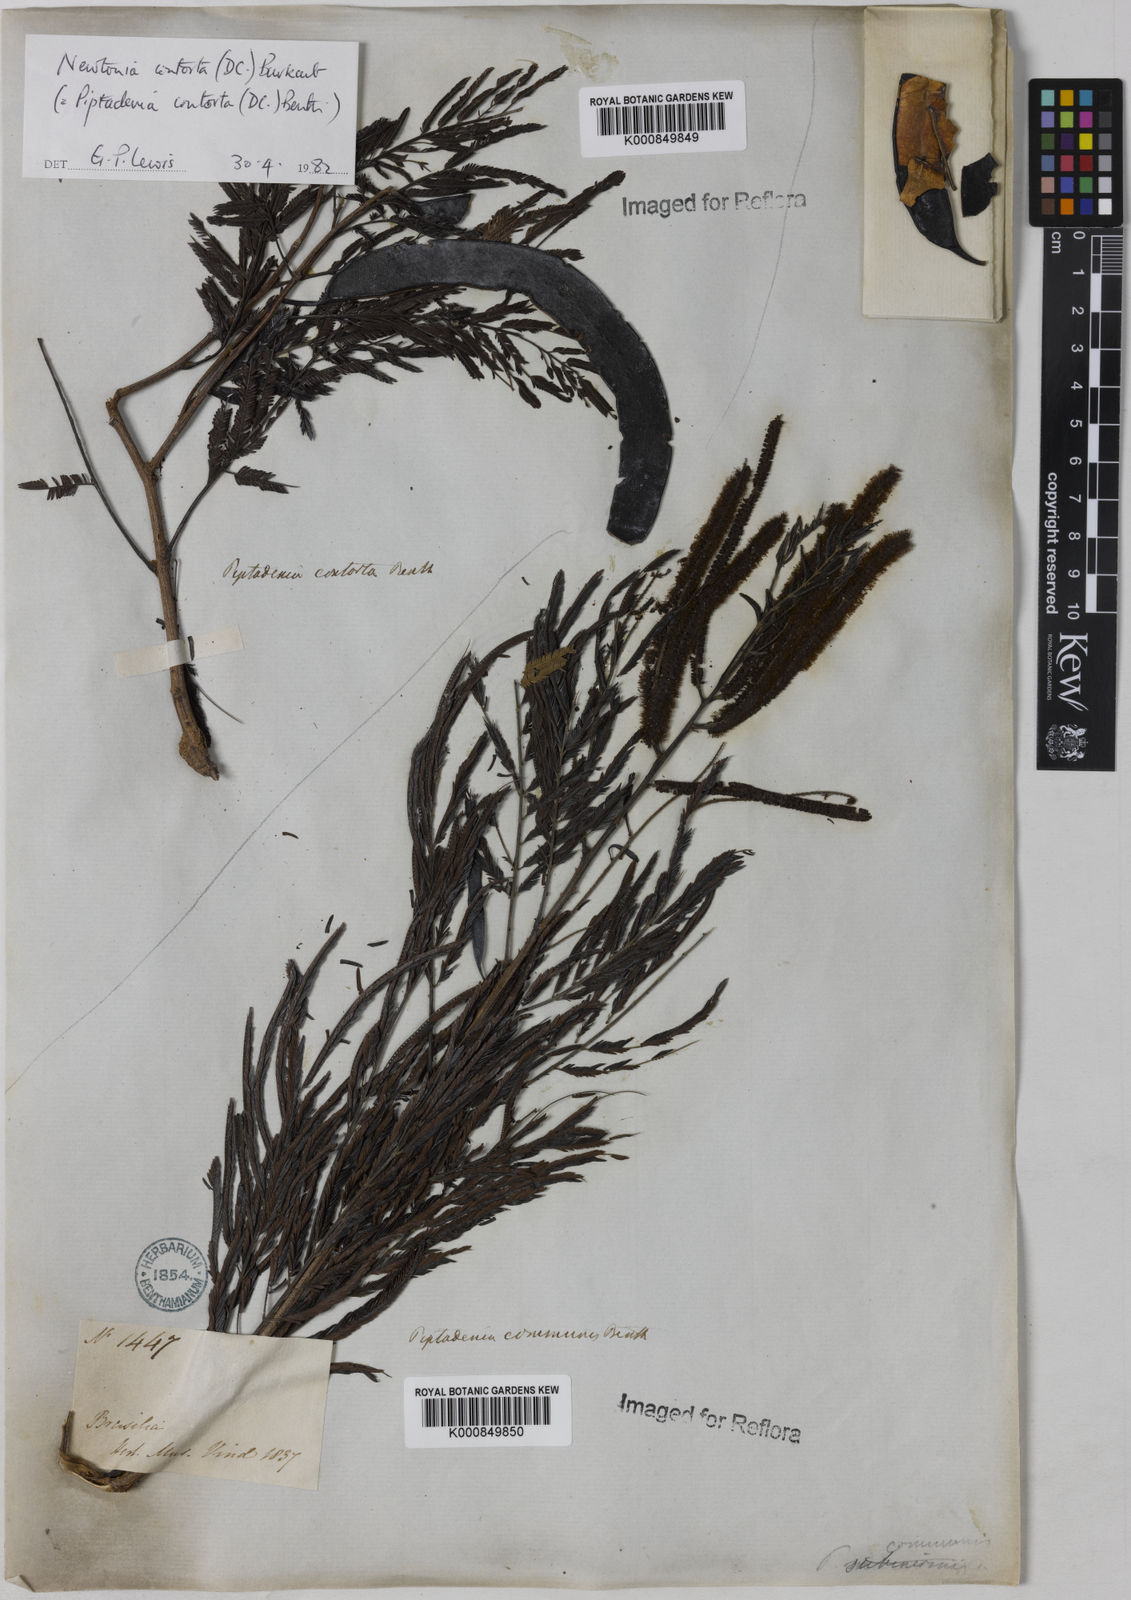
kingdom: Plantae
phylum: Tracheophyta
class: Magnoliopsida
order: Fabales
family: Fabaceae
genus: Piptadenia
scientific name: Piptadenia gonoacantha
